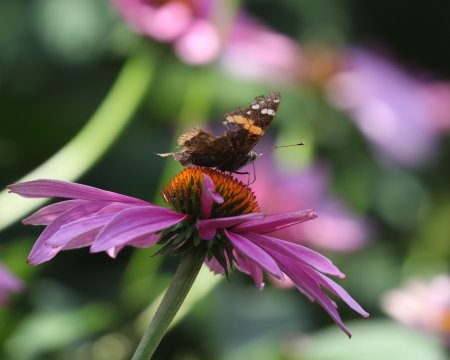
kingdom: Animalia
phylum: Arthropoda
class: Insecta
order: Lepidoptera
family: Nymphalidae
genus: Vanessa
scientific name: Vanessa atalanta
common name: Red Admiral
